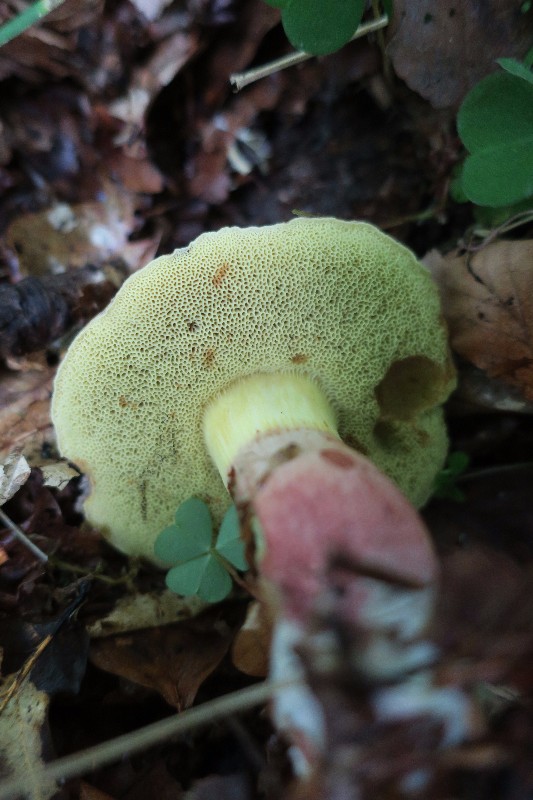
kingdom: Fungi
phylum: Basidiomycota
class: Agaricomycetes
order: Boletales
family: Boletaceae
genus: Xerocomellus
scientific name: Xerocomellus
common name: dværgrørhat
